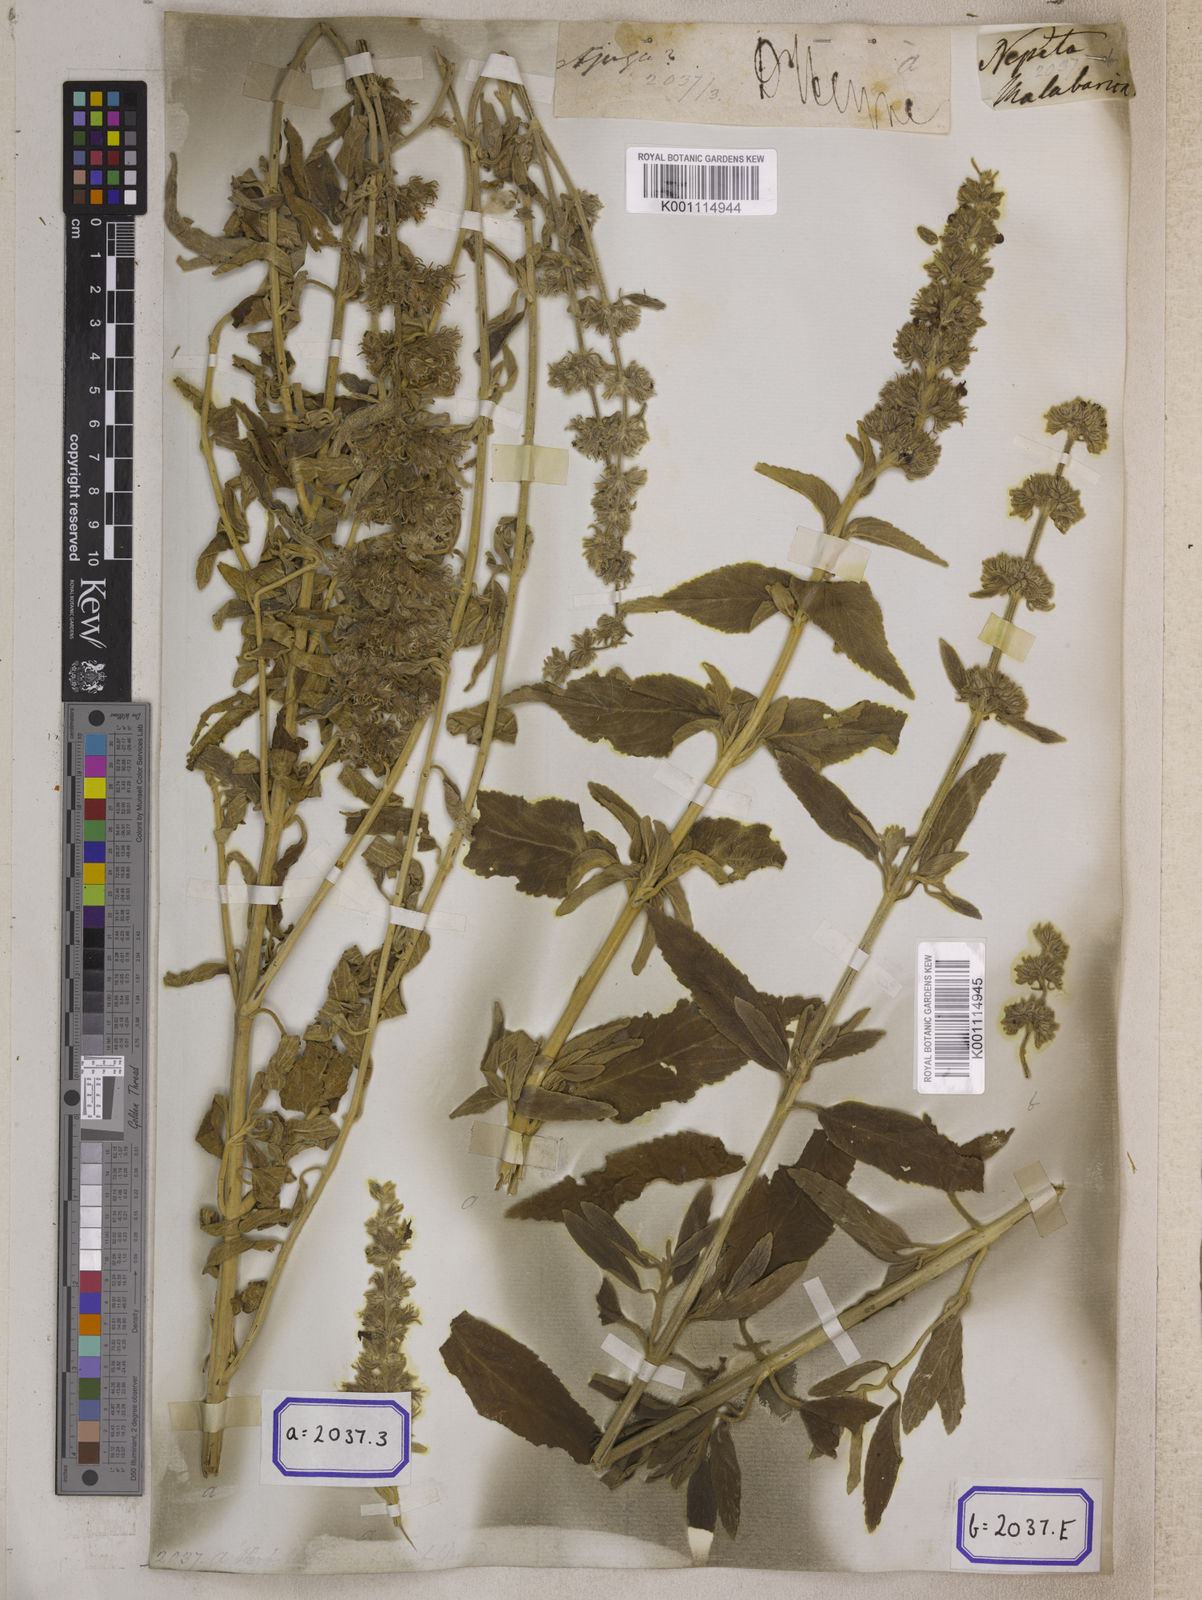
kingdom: Plantae
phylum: Tracheophyta
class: Magnoliopsida
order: Lamiales
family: Lamiaceae
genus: Anisomeles
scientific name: Anisomeles malabarica
